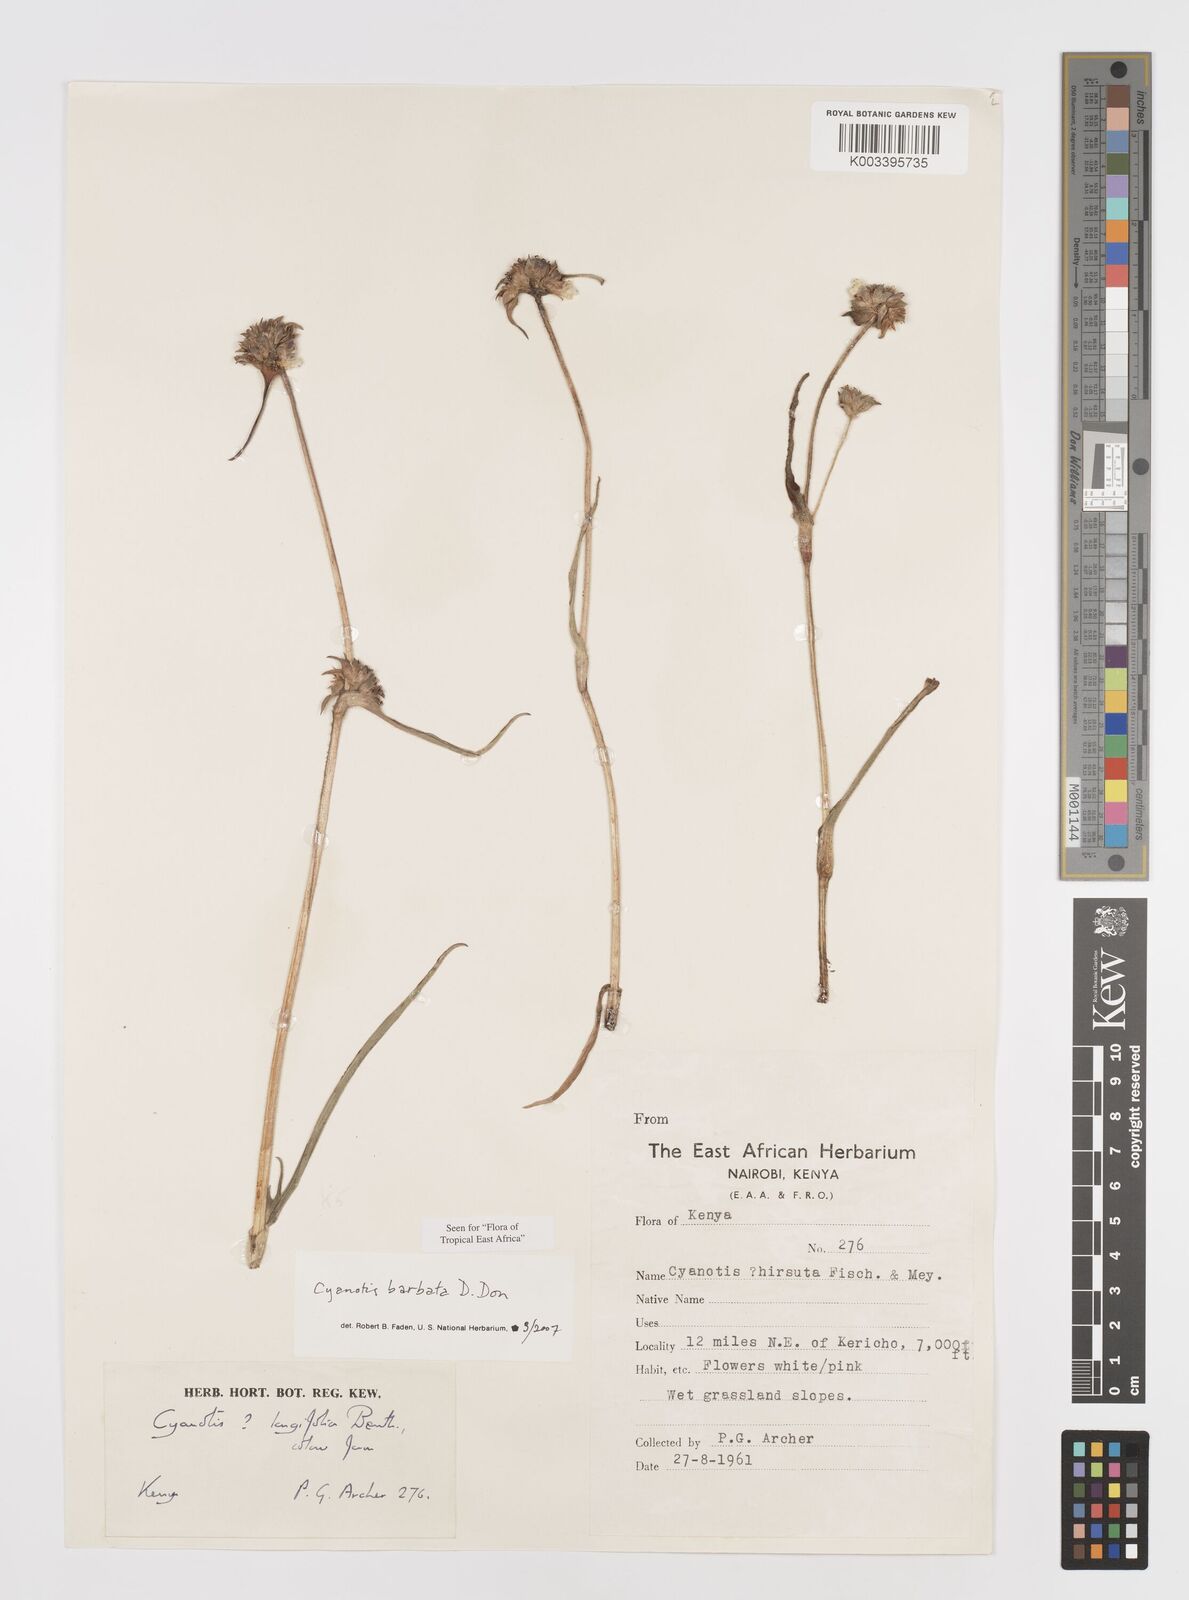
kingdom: Plantae
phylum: Tracheophyta
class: Liliopsida
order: Commelinales
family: Commelinaceae
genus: Cyanotis
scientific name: Cyanotis vaga
